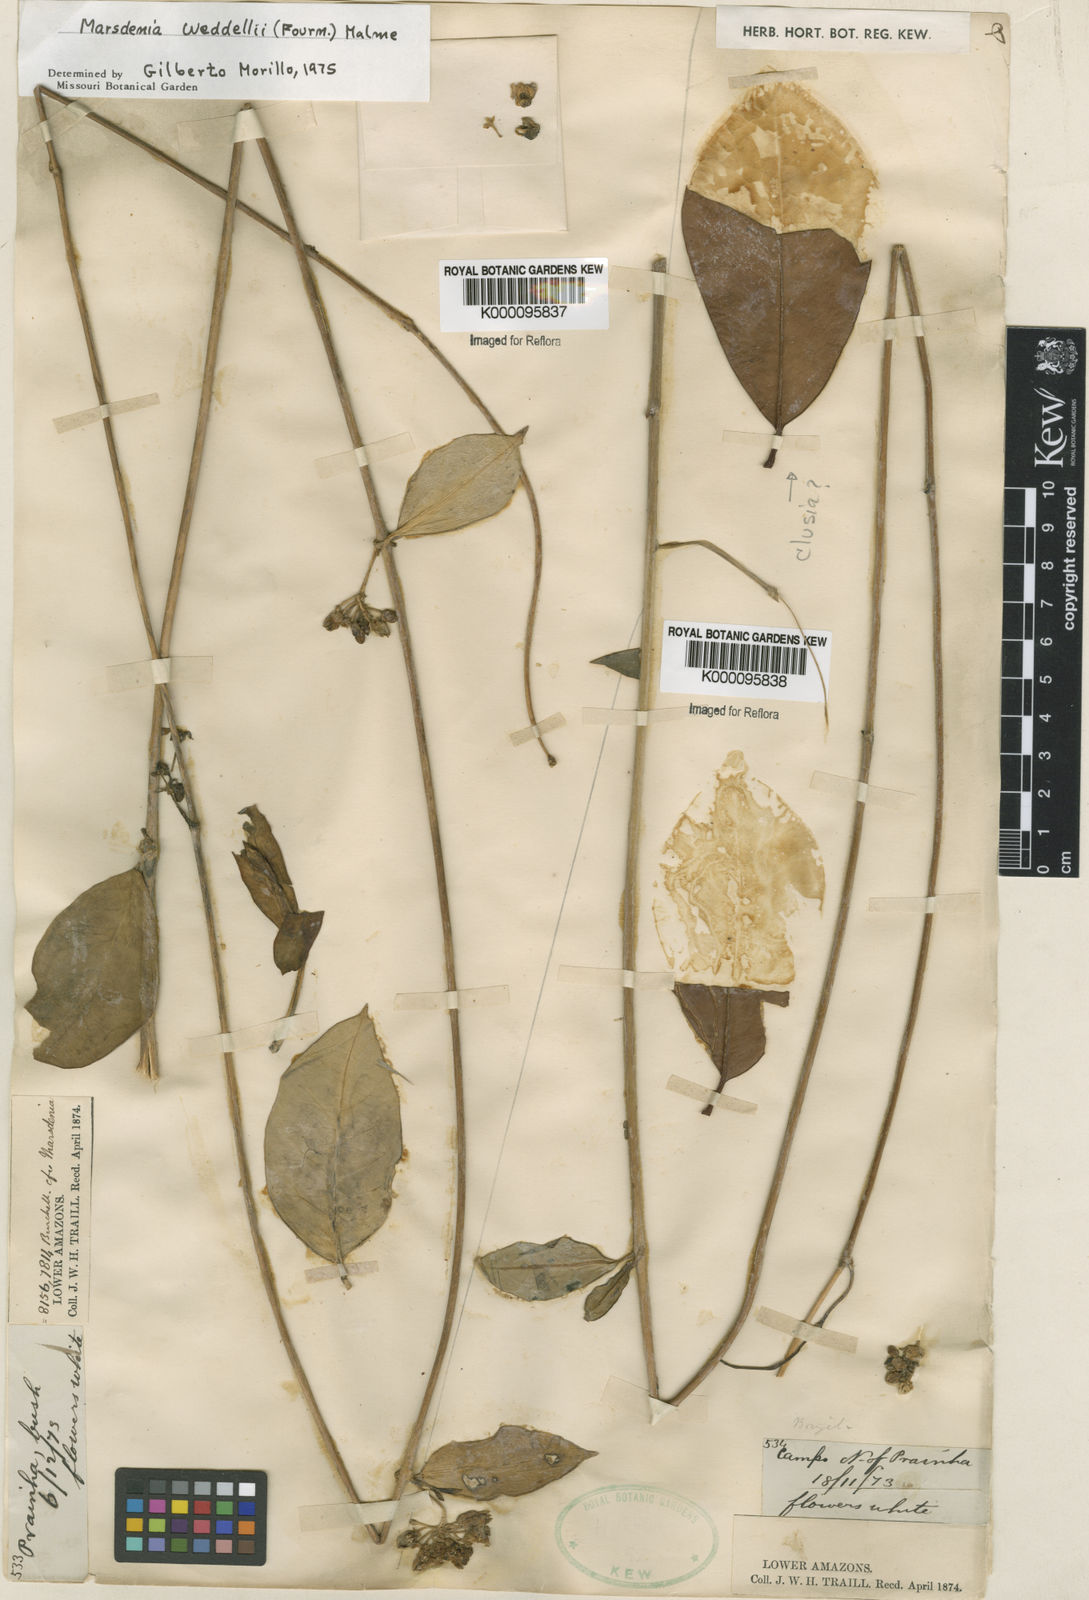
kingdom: Plantae
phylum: Tracheophyta
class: Magnoliopsida
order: Gentianales
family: Apocynaceae
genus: Ruehssia
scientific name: Ruehssia weddellii
